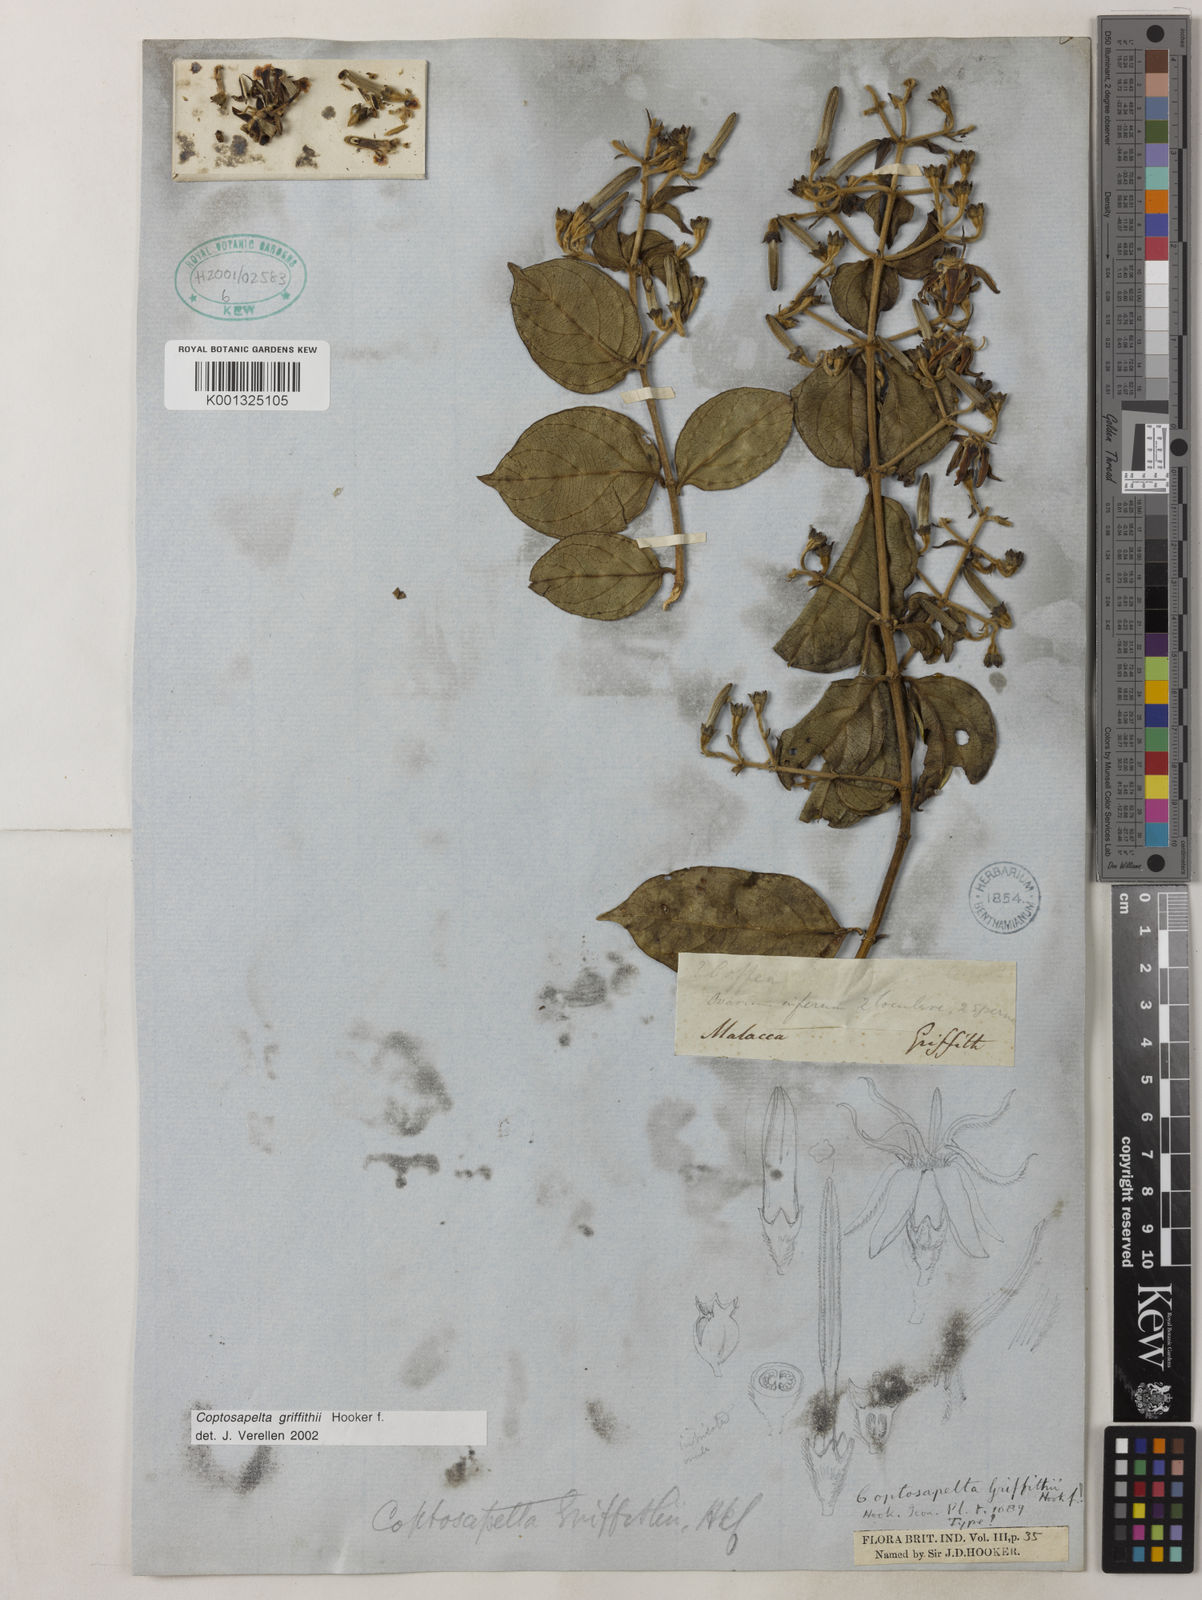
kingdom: Plantae
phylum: Tracheophyta
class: Magnoliopsida
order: Gentianales
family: Rubiaceae
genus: Coptosapelta
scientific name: Coptosapelta griffithii
